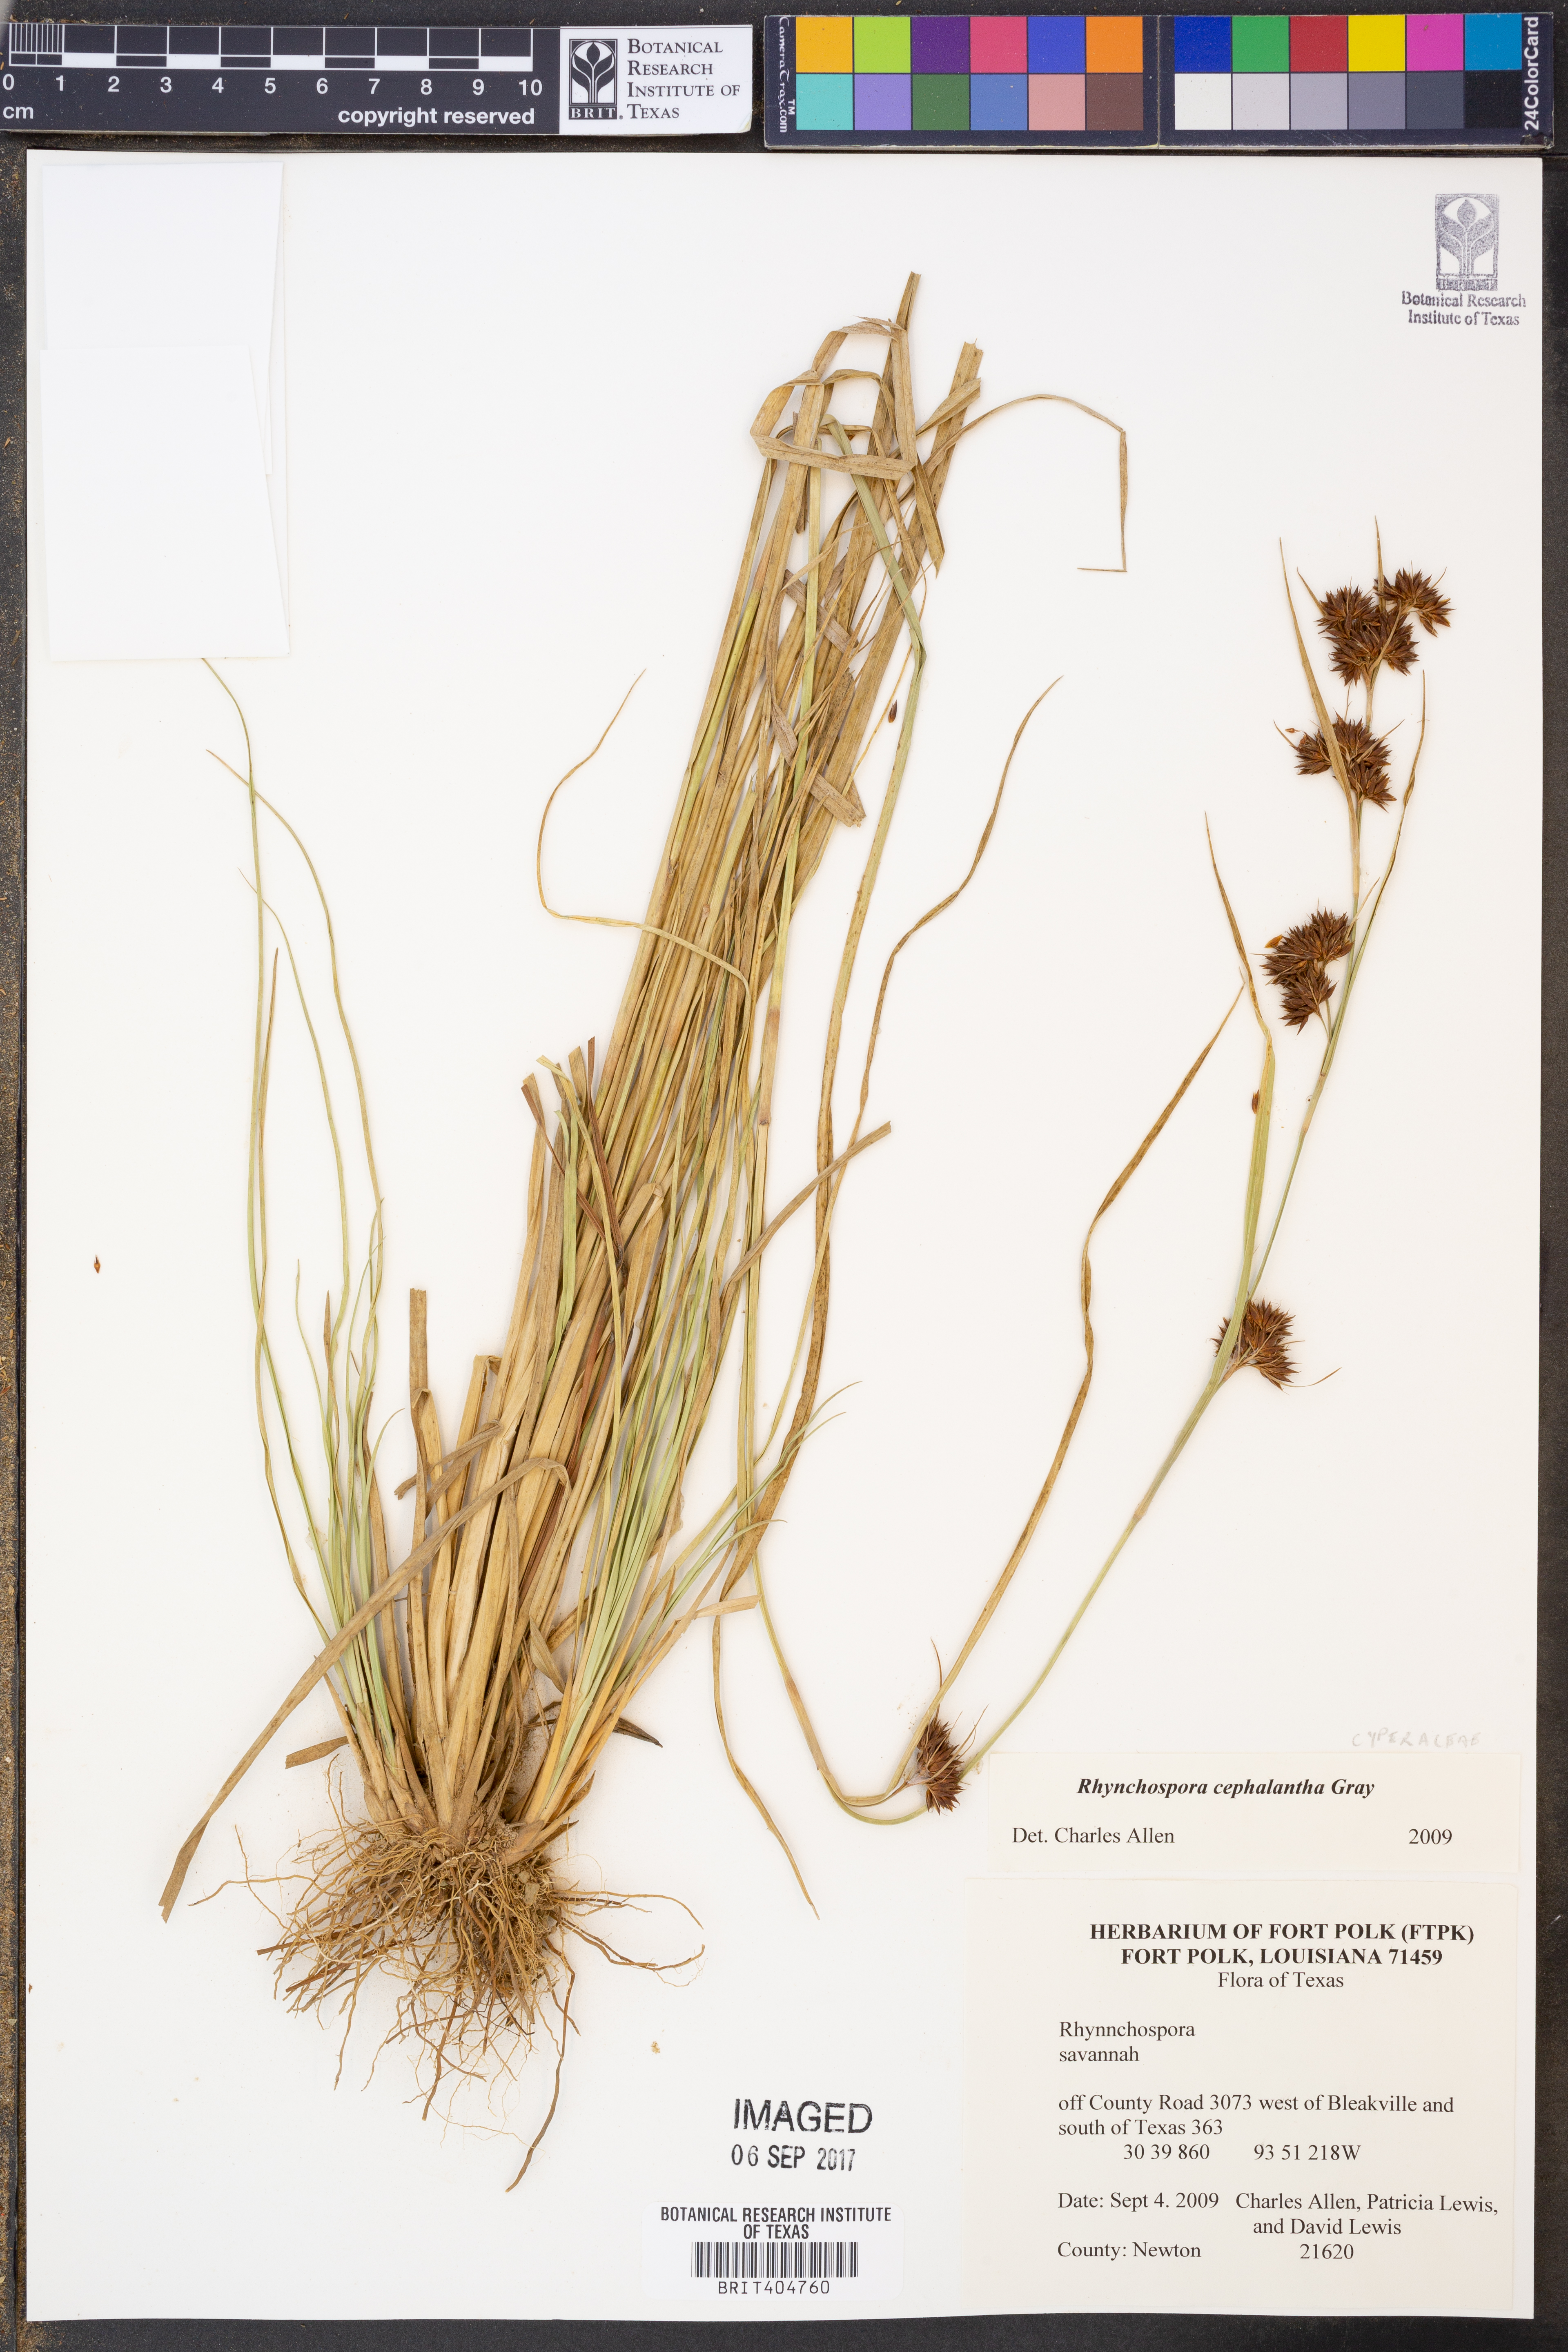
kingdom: Plantae
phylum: Tracheophyta
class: Liliopsida
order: Poales
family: Cyperaceae
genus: Rhynchospora
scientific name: Rhynchospora glomerata
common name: Cluster beak sedge
